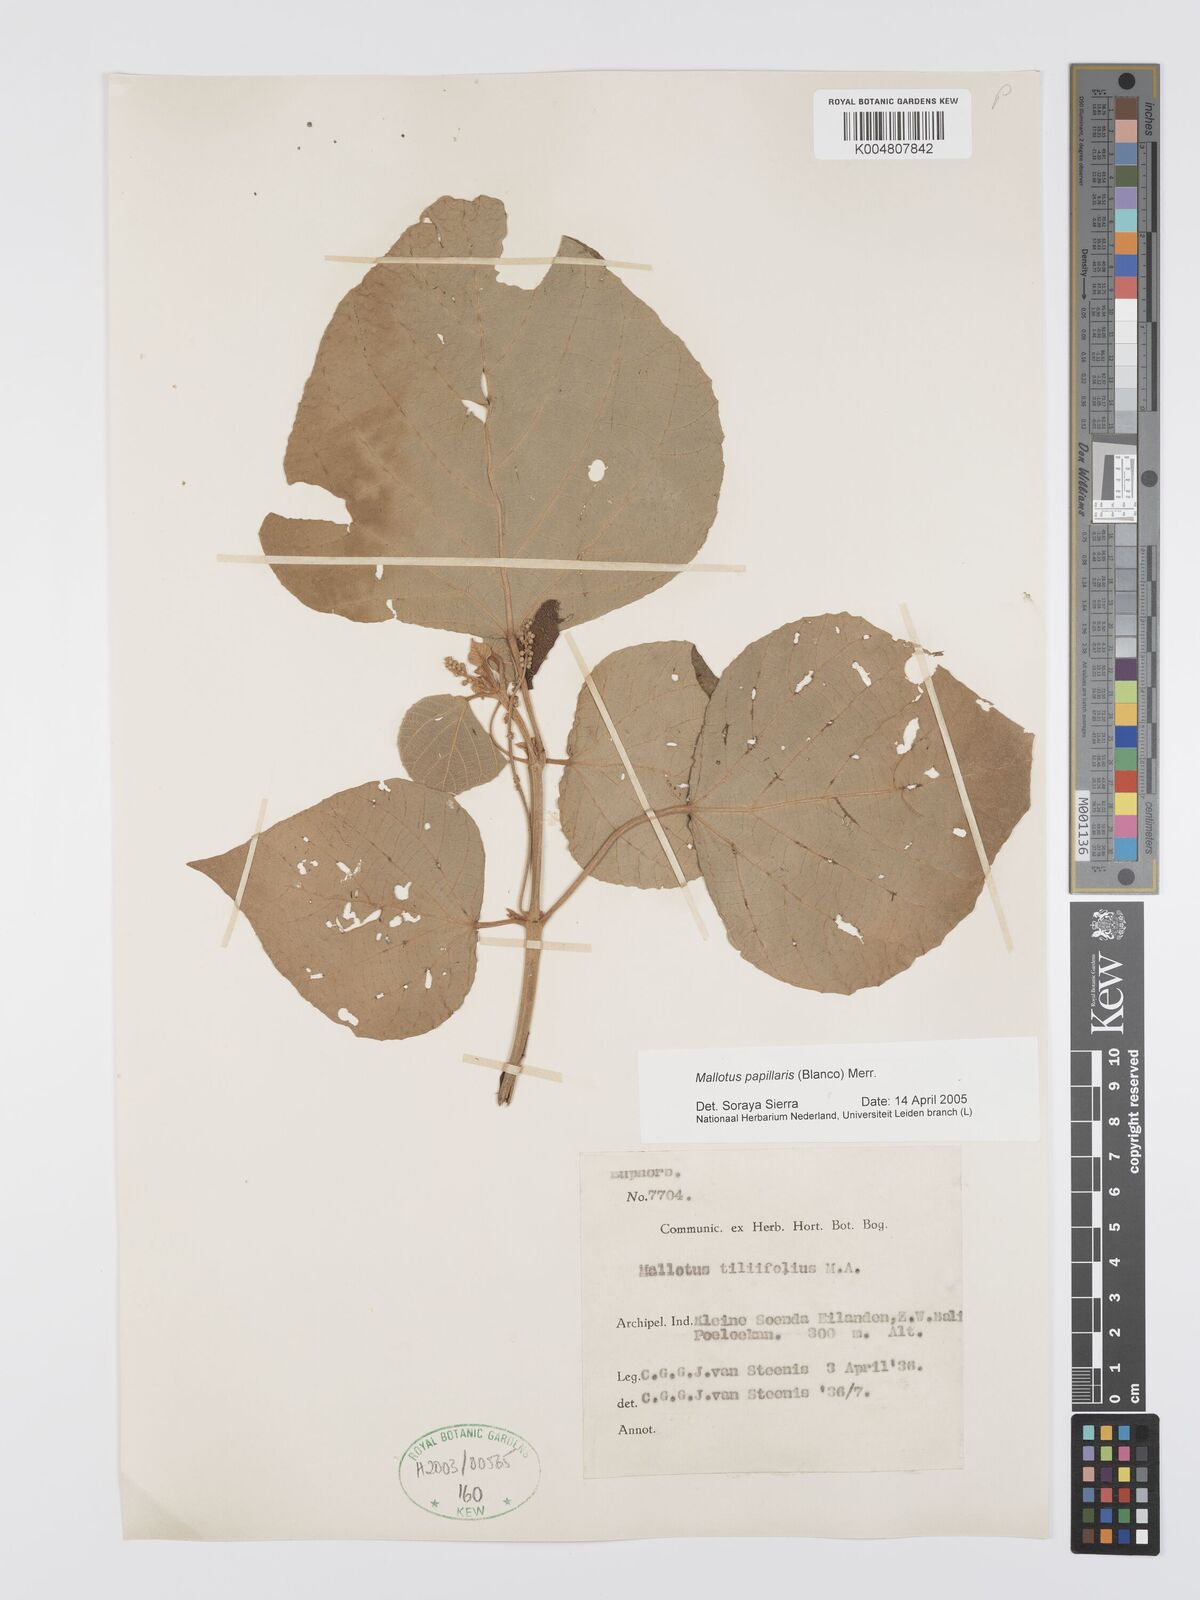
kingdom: Plantae
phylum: Tracheophyta
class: Magnoliopsida
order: Malpighiales
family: Euphorbiaceae
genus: Mallotus
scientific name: Mallotus tiliifolius
